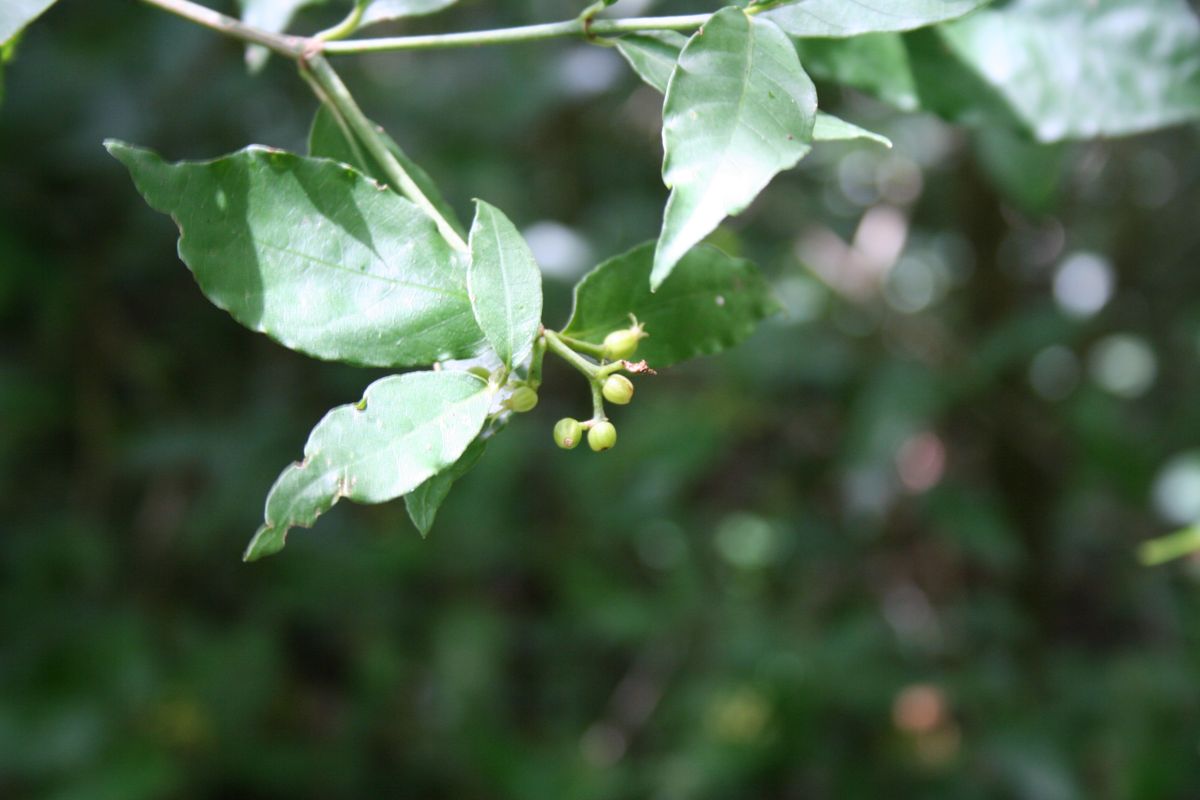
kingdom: Plantae
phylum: Tracheophyta
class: Magnoliopsida
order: Gentianales
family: Rubiaceae
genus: Psychotria
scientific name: Psychotria
